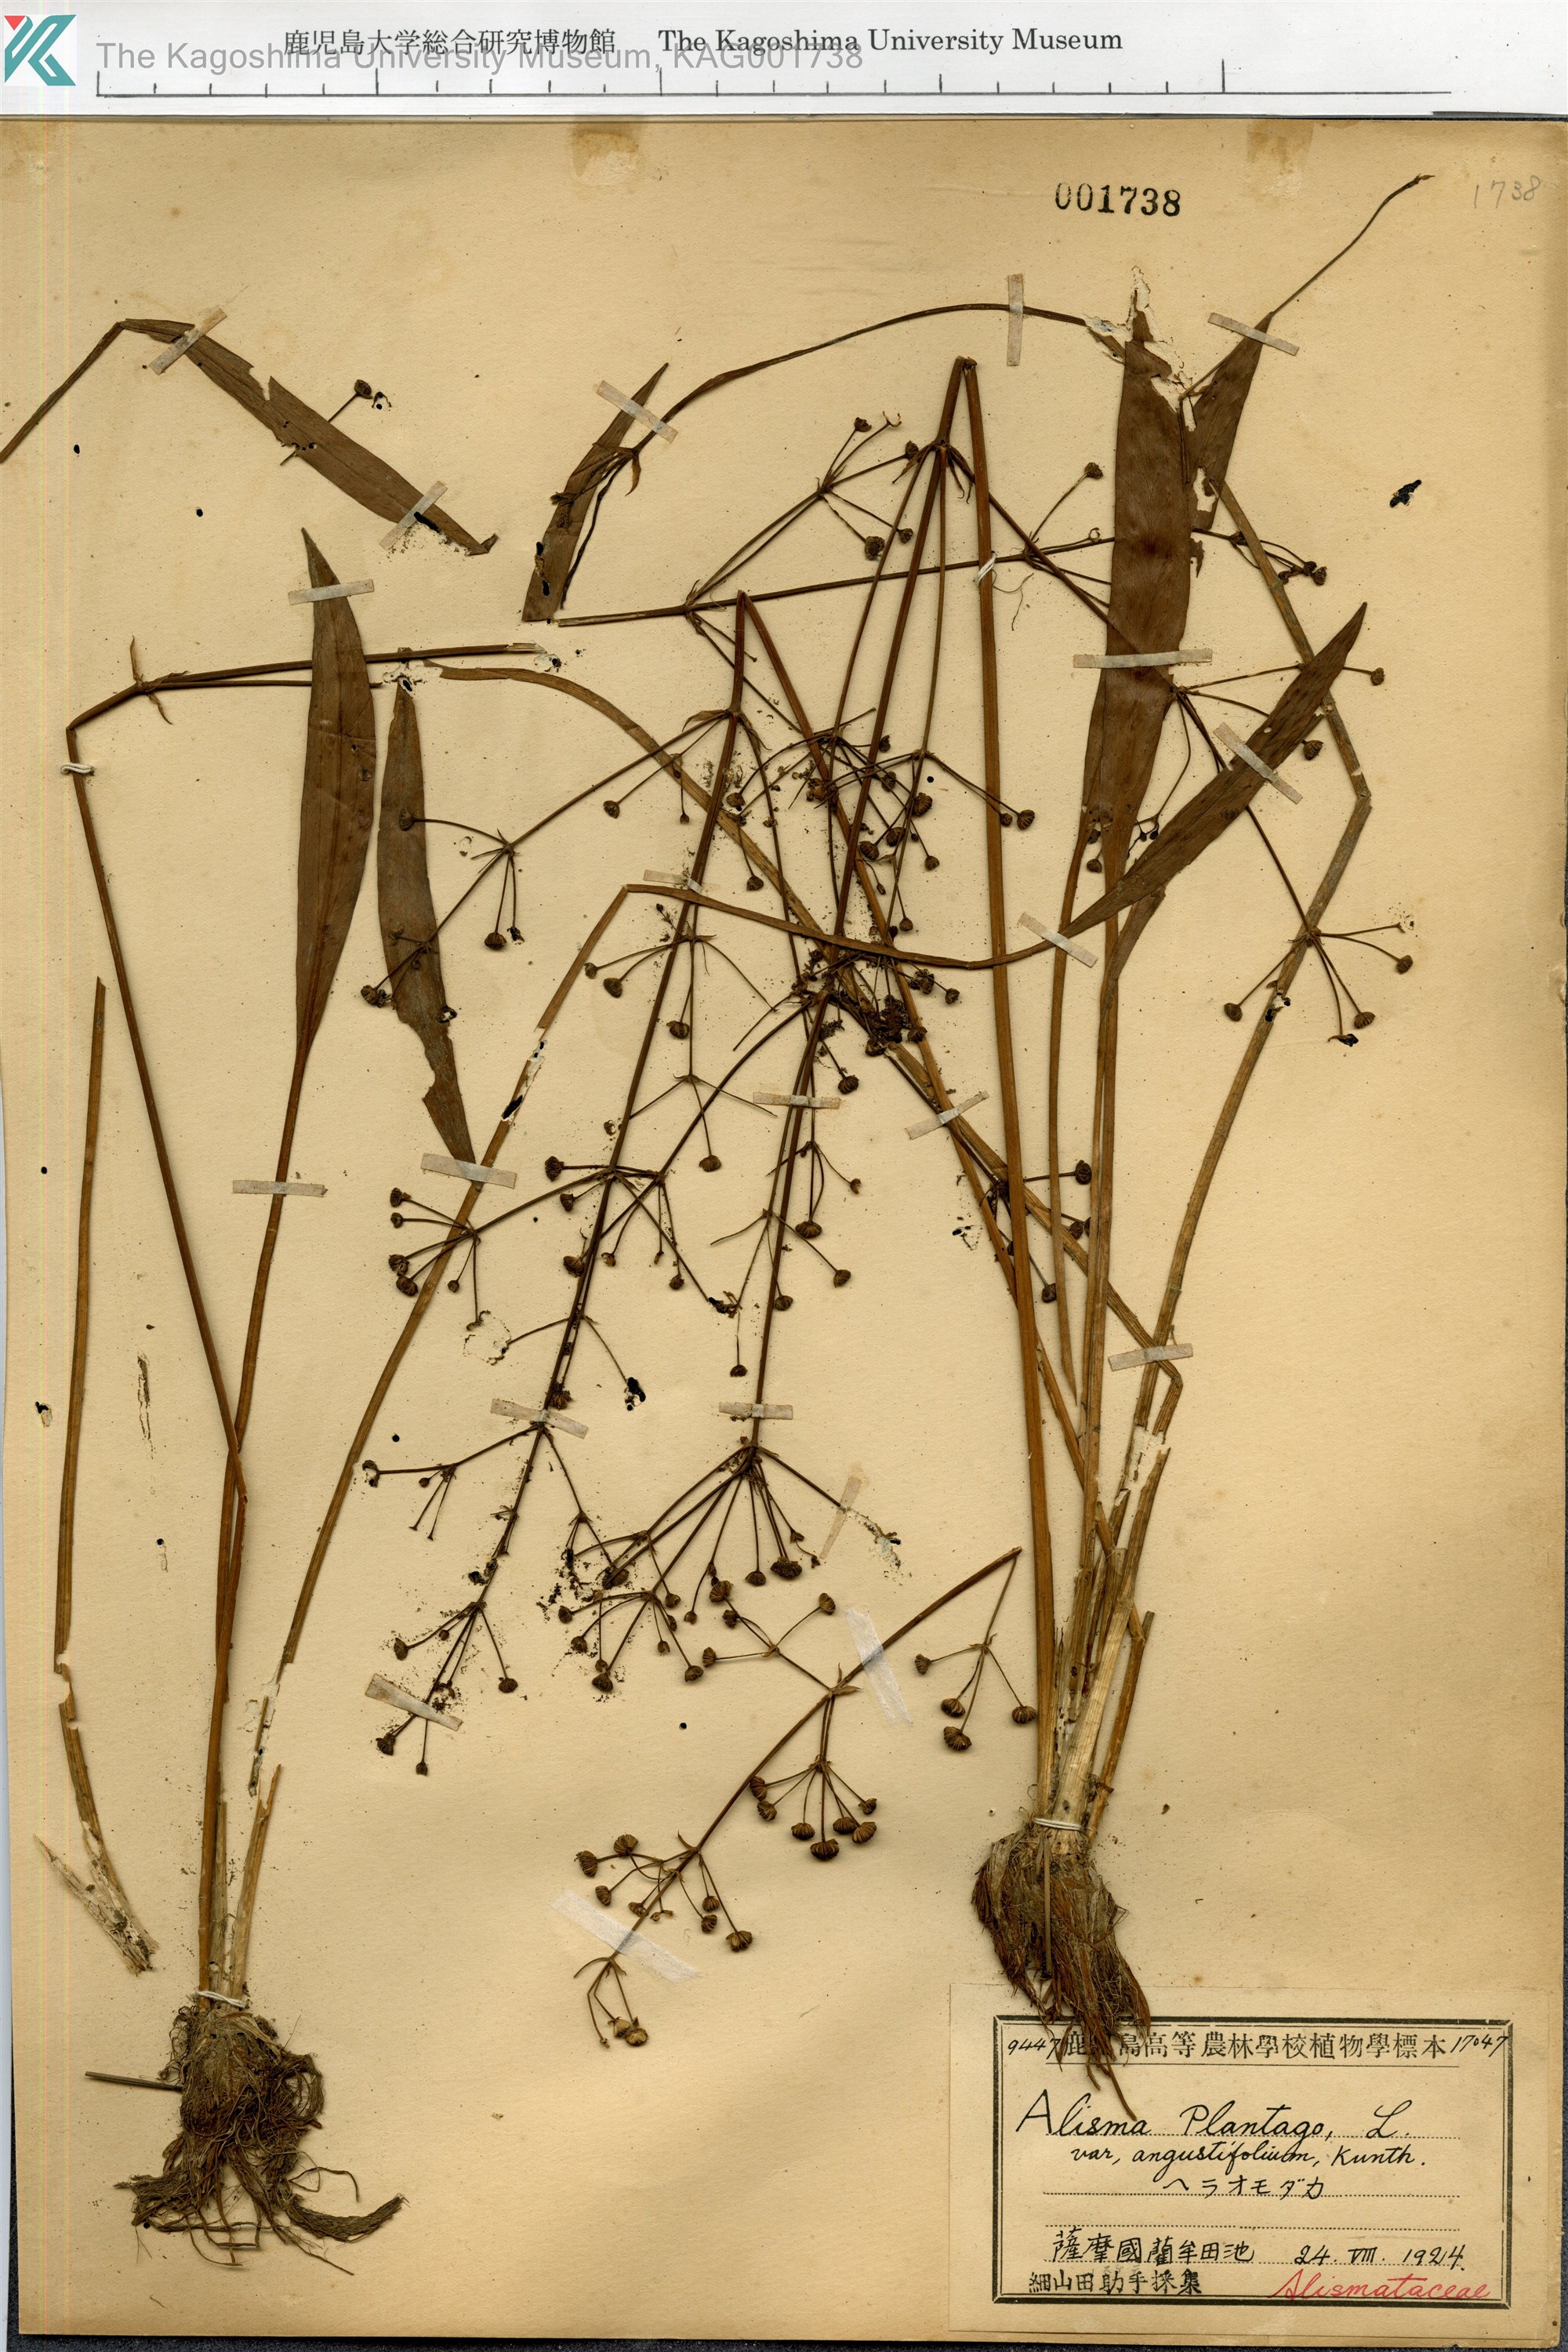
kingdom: Plantae
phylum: Tracheophyta
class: Liliopsida
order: Alismatales
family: Alismataceae
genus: Alisma
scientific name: Alisma canaliculatum
